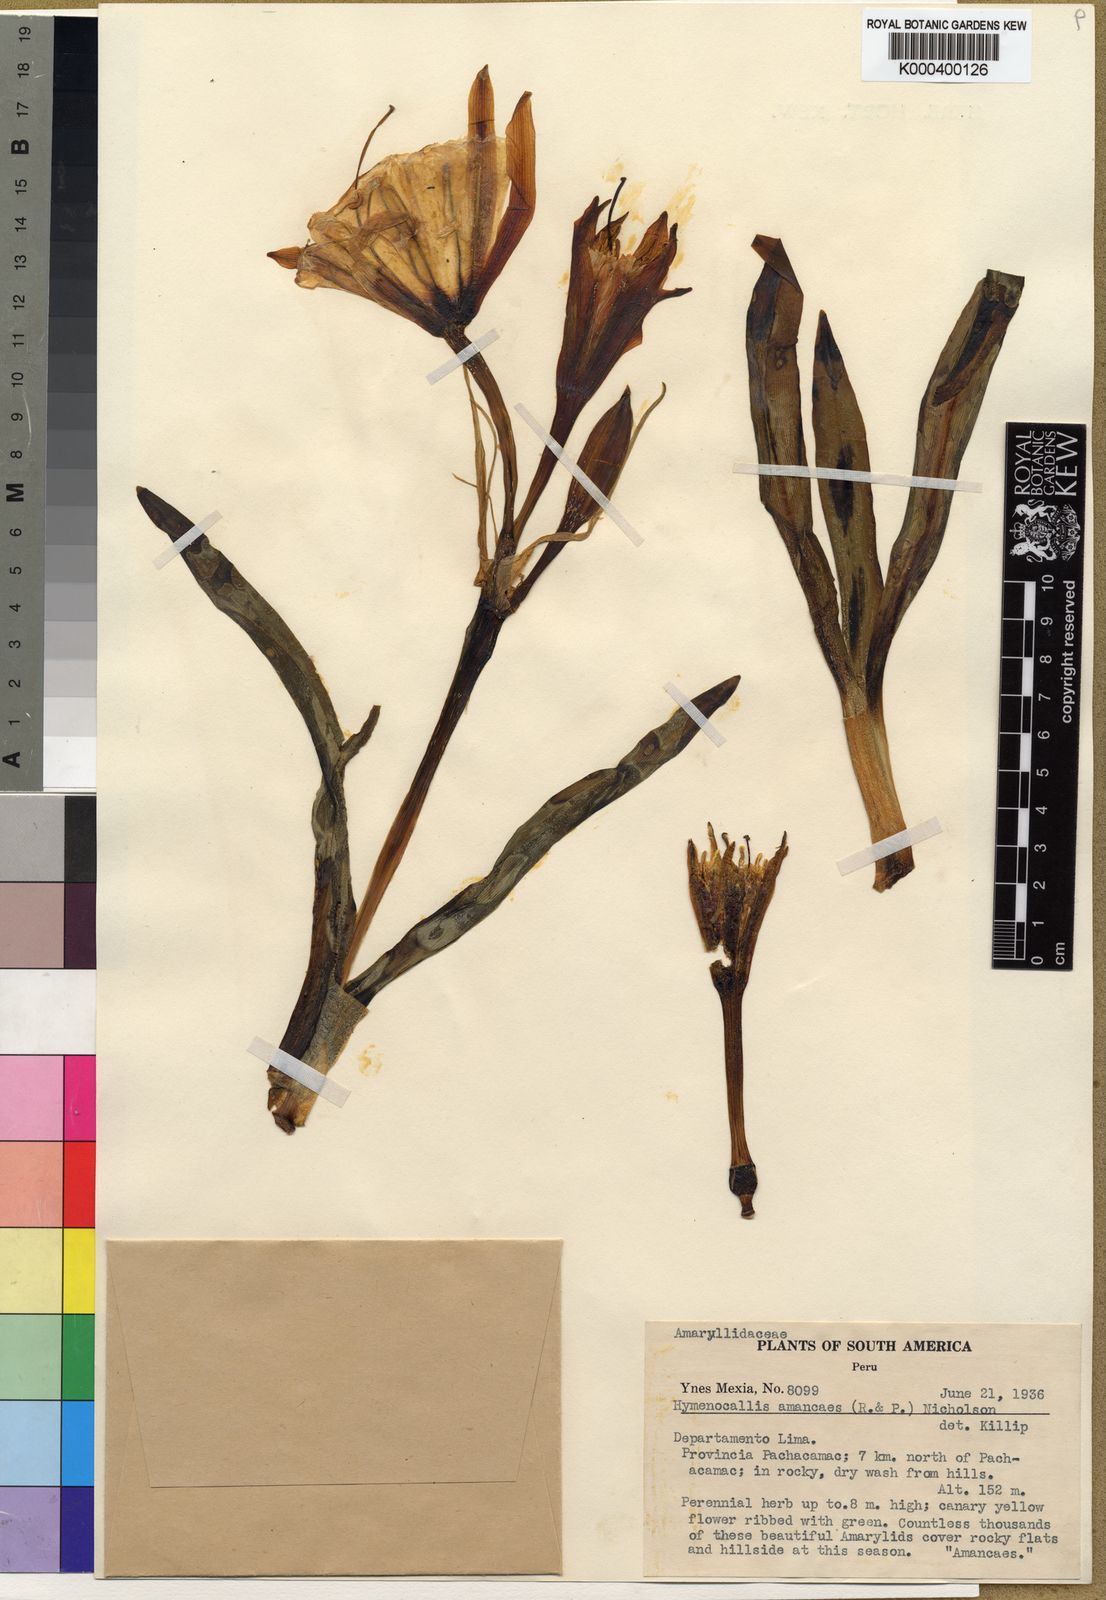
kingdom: Plantae
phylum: Tracheophyta
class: Liliopsida
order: Asparagales
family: Amaryllidaceae
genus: Ismene
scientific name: Ismene amancaes
